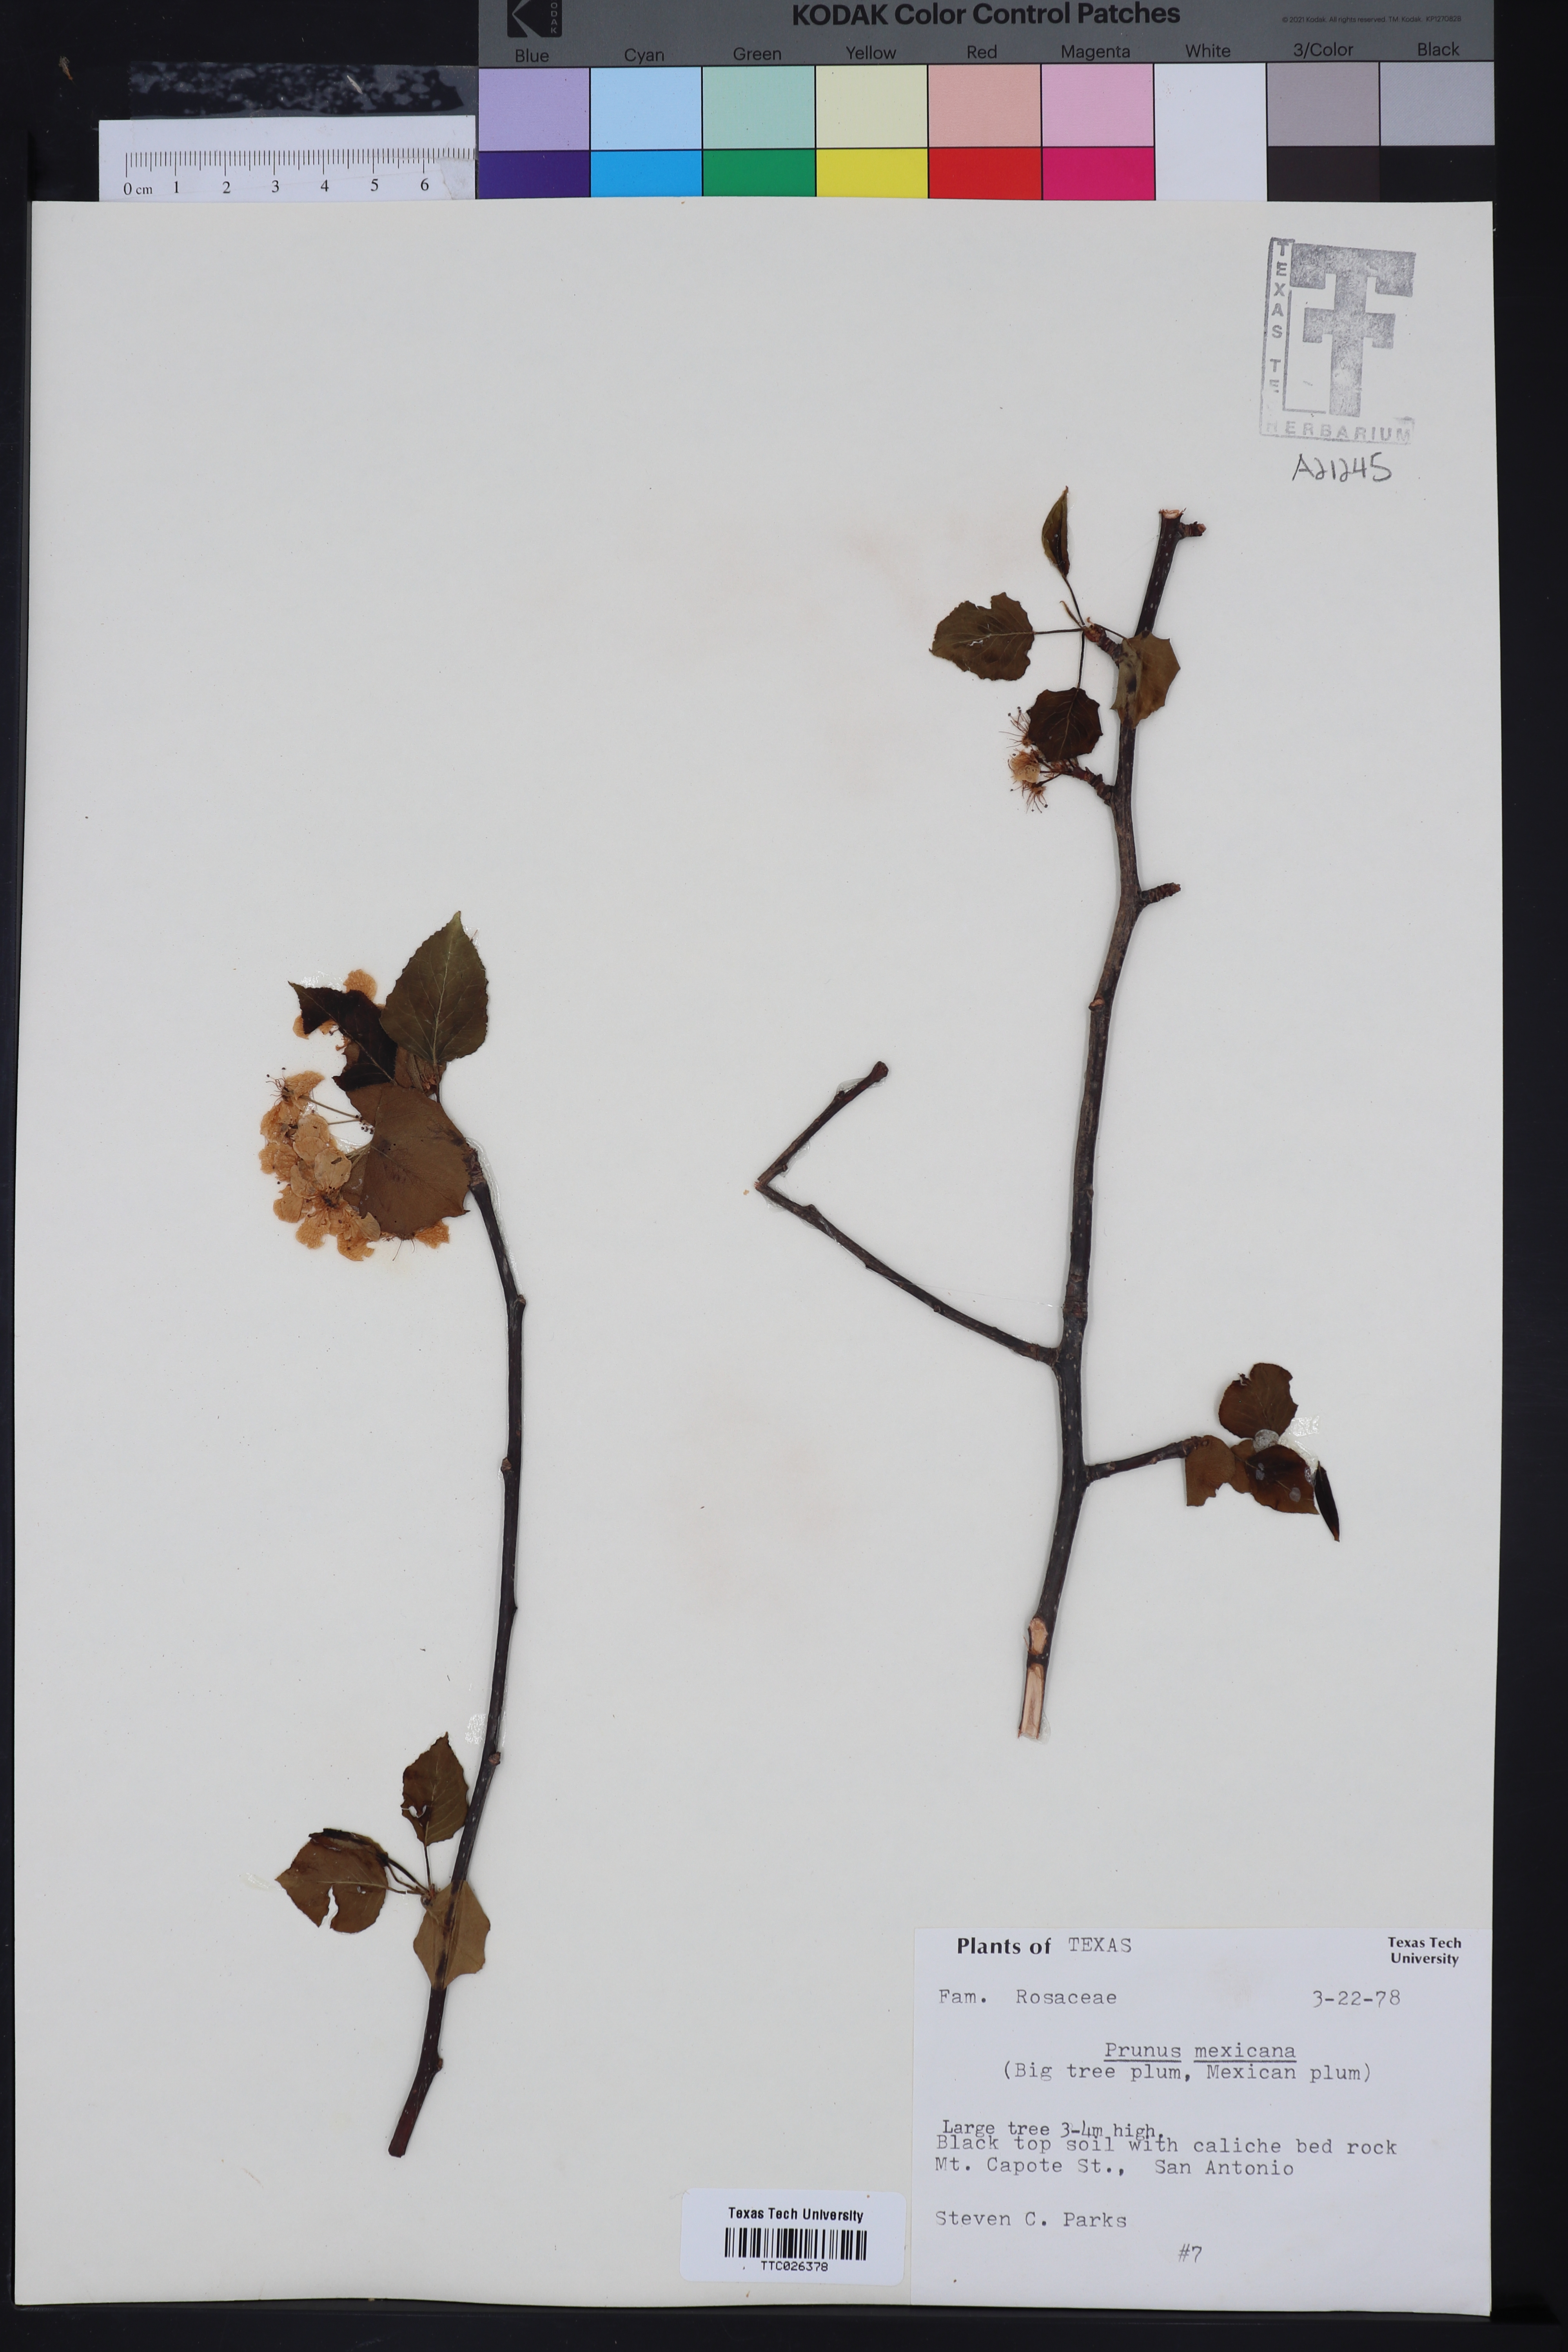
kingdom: Plantae
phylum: Tracheophyta
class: Magnoliopsida
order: Rosales
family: Rosaceae
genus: Prunus
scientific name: Prunus mexicana
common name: Mexican plum
